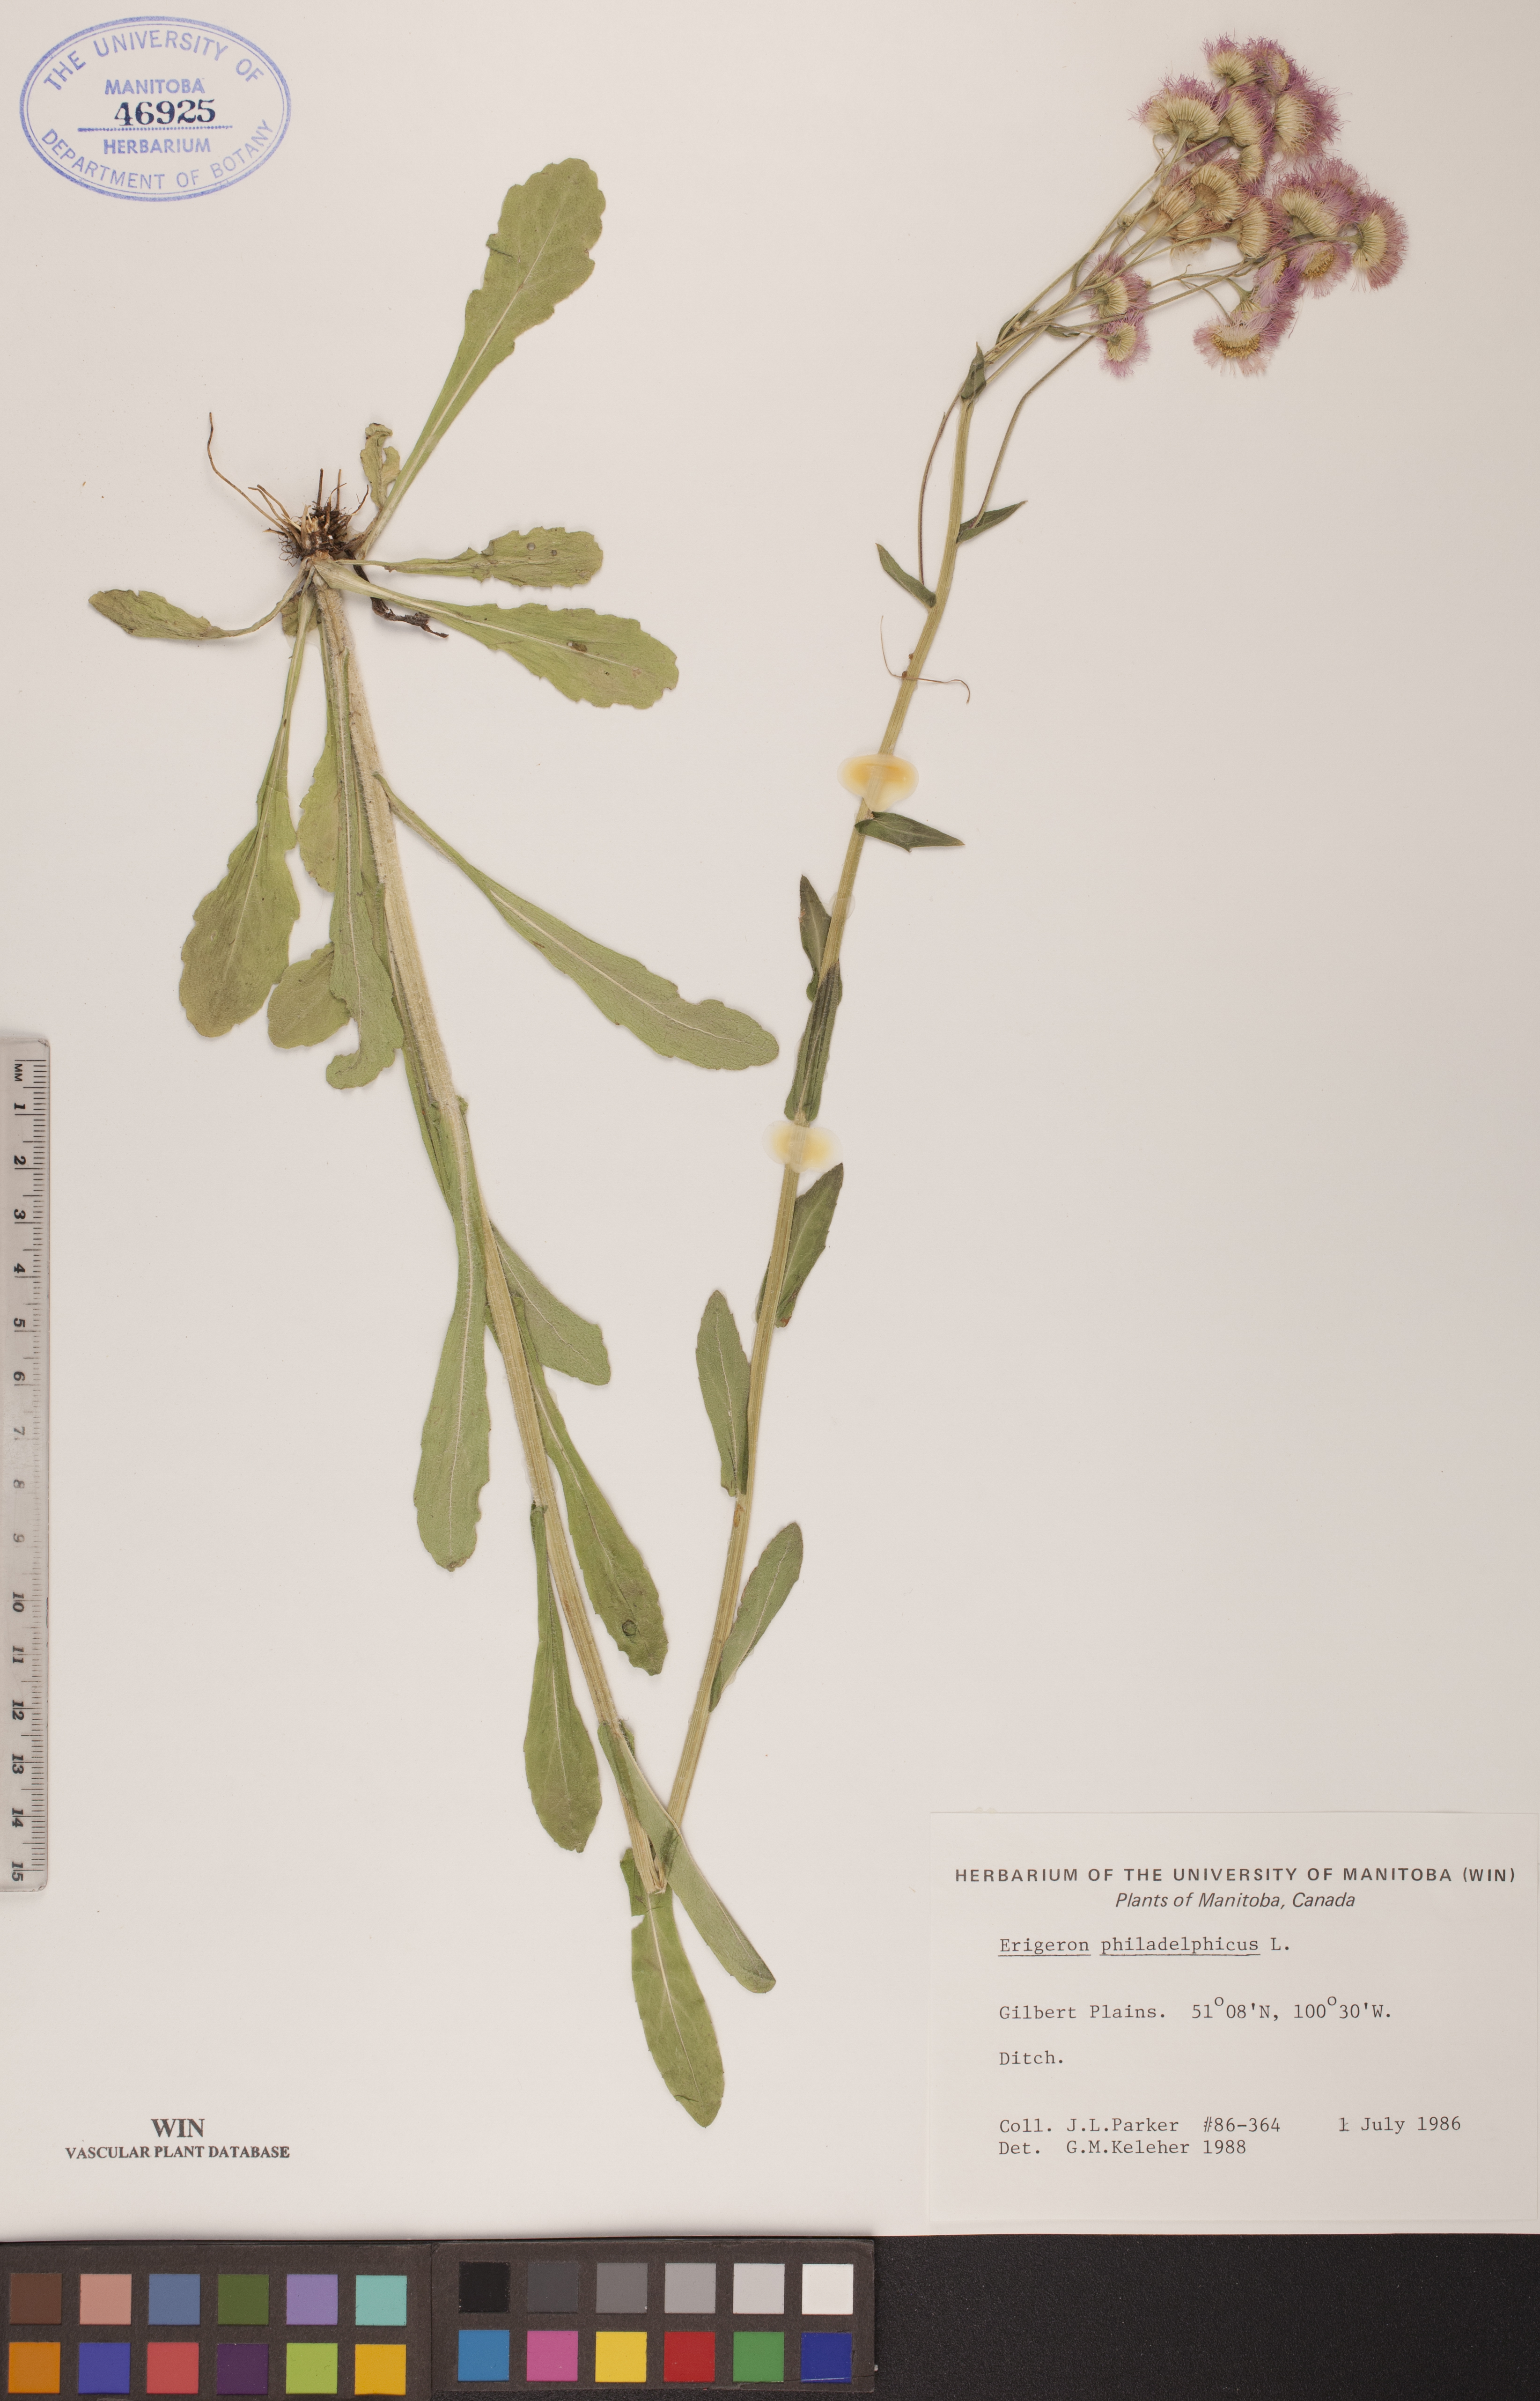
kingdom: Plantae
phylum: Tracheophyta
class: Magnoliopsida
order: Asterales
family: Asteraceae
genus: Erigeron
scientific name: Erigeron philadelphicus
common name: Robin's-plantain
